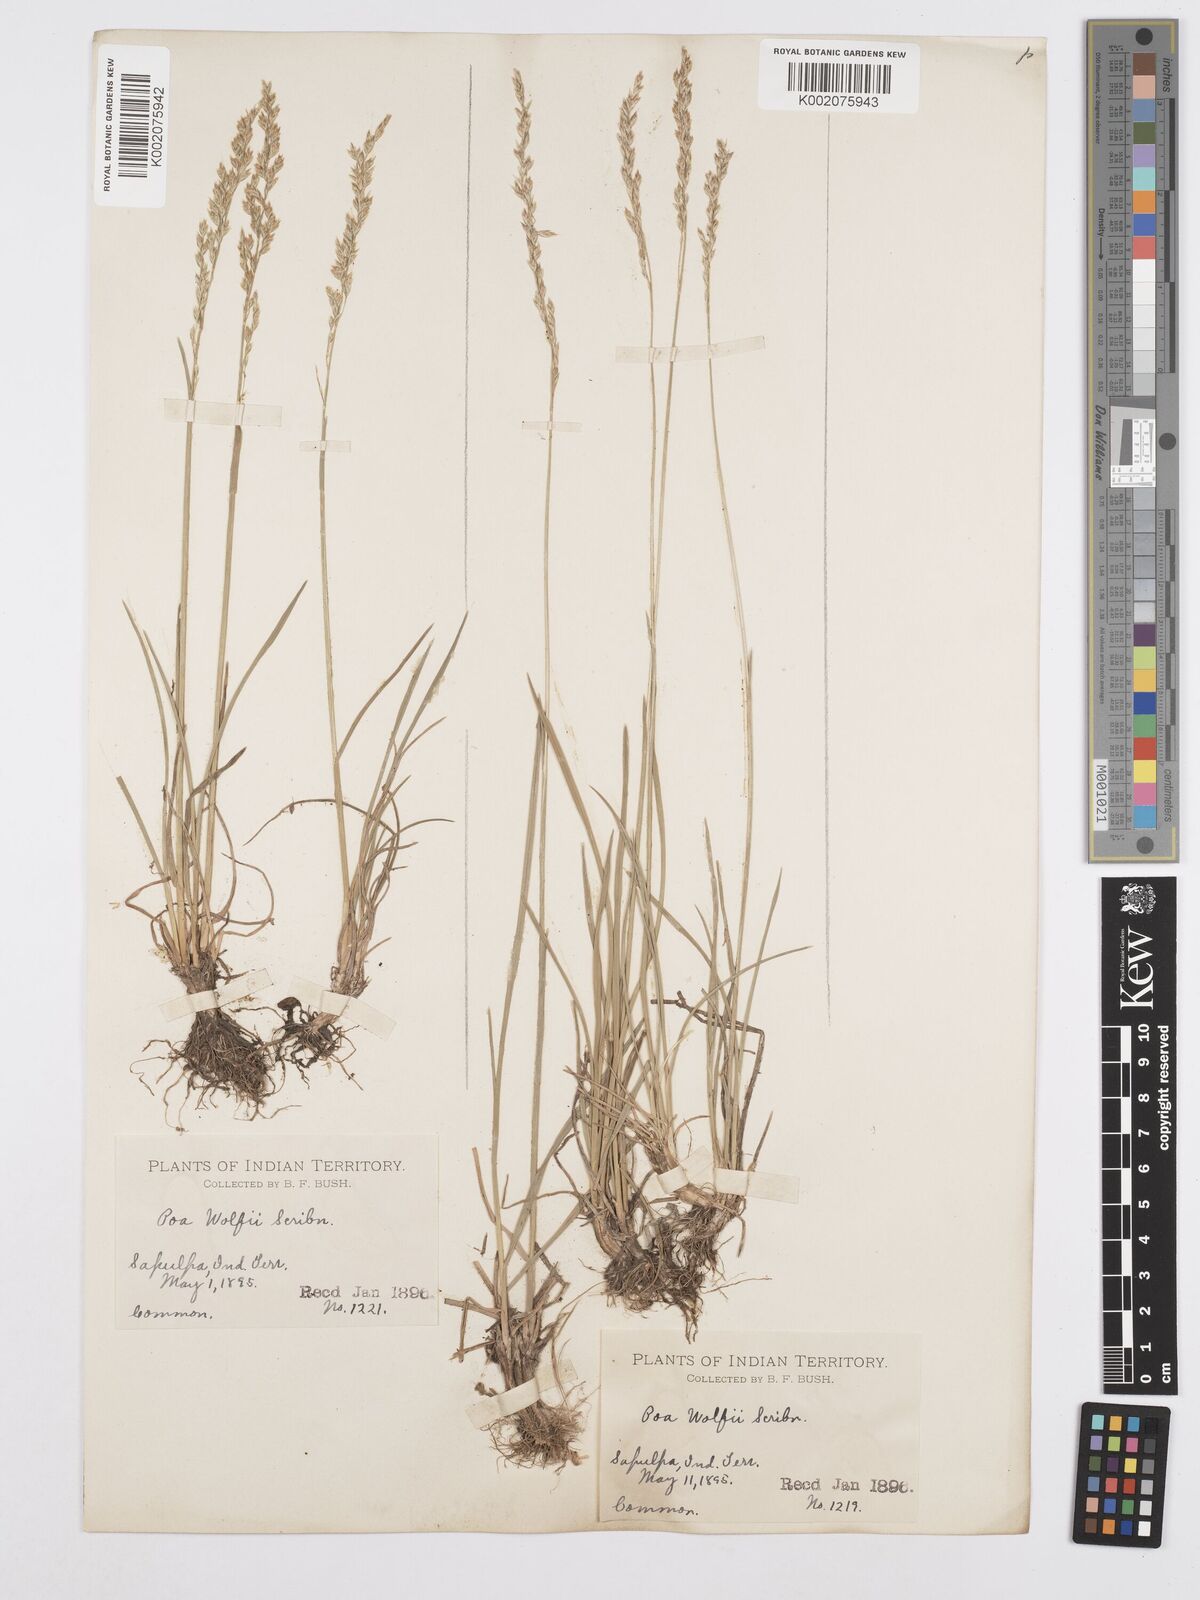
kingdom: Plantae
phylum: Tracheophyta
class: Liliopsida
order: Poales
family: Poaceae
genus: Poa
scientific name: Poa wolfii
